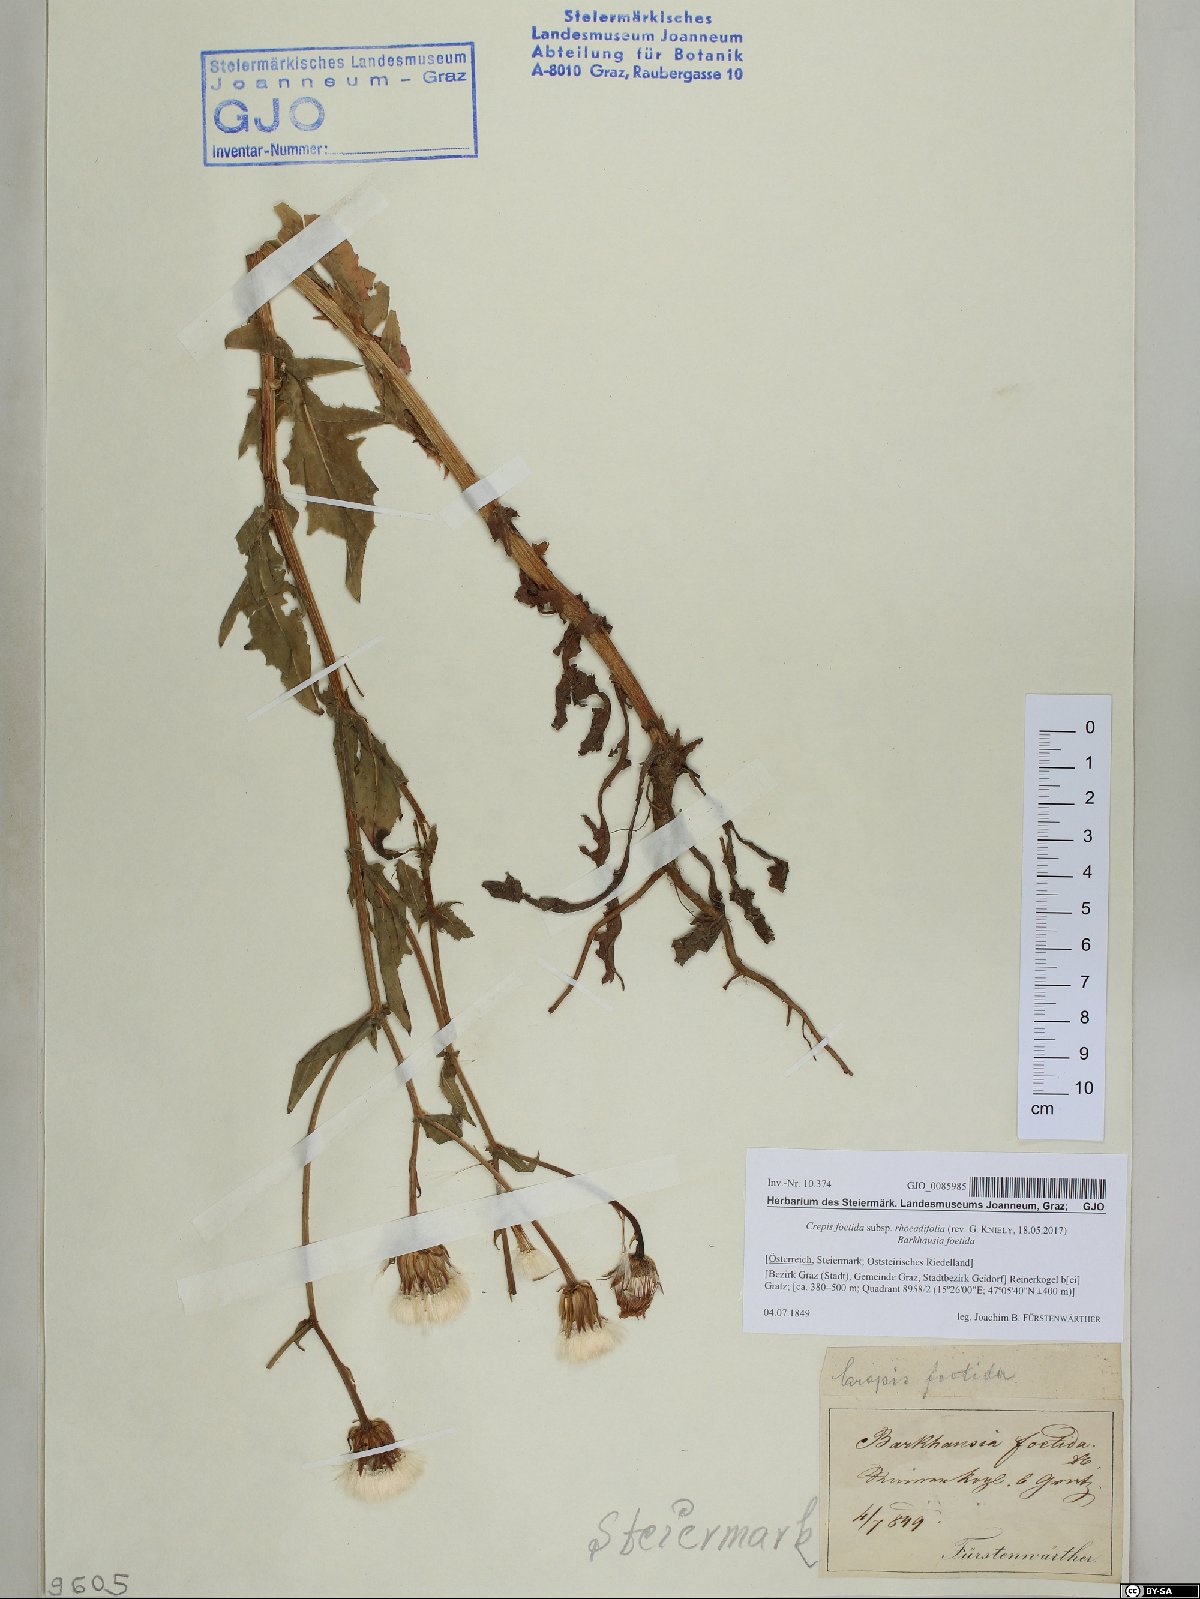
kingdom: Plantae
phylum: Tracheophyta
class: Magnoliopsida
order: Asterales
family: Asteraceae
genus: Crepis
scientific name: Crepis foetida
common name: Stinking hawk's-beard
